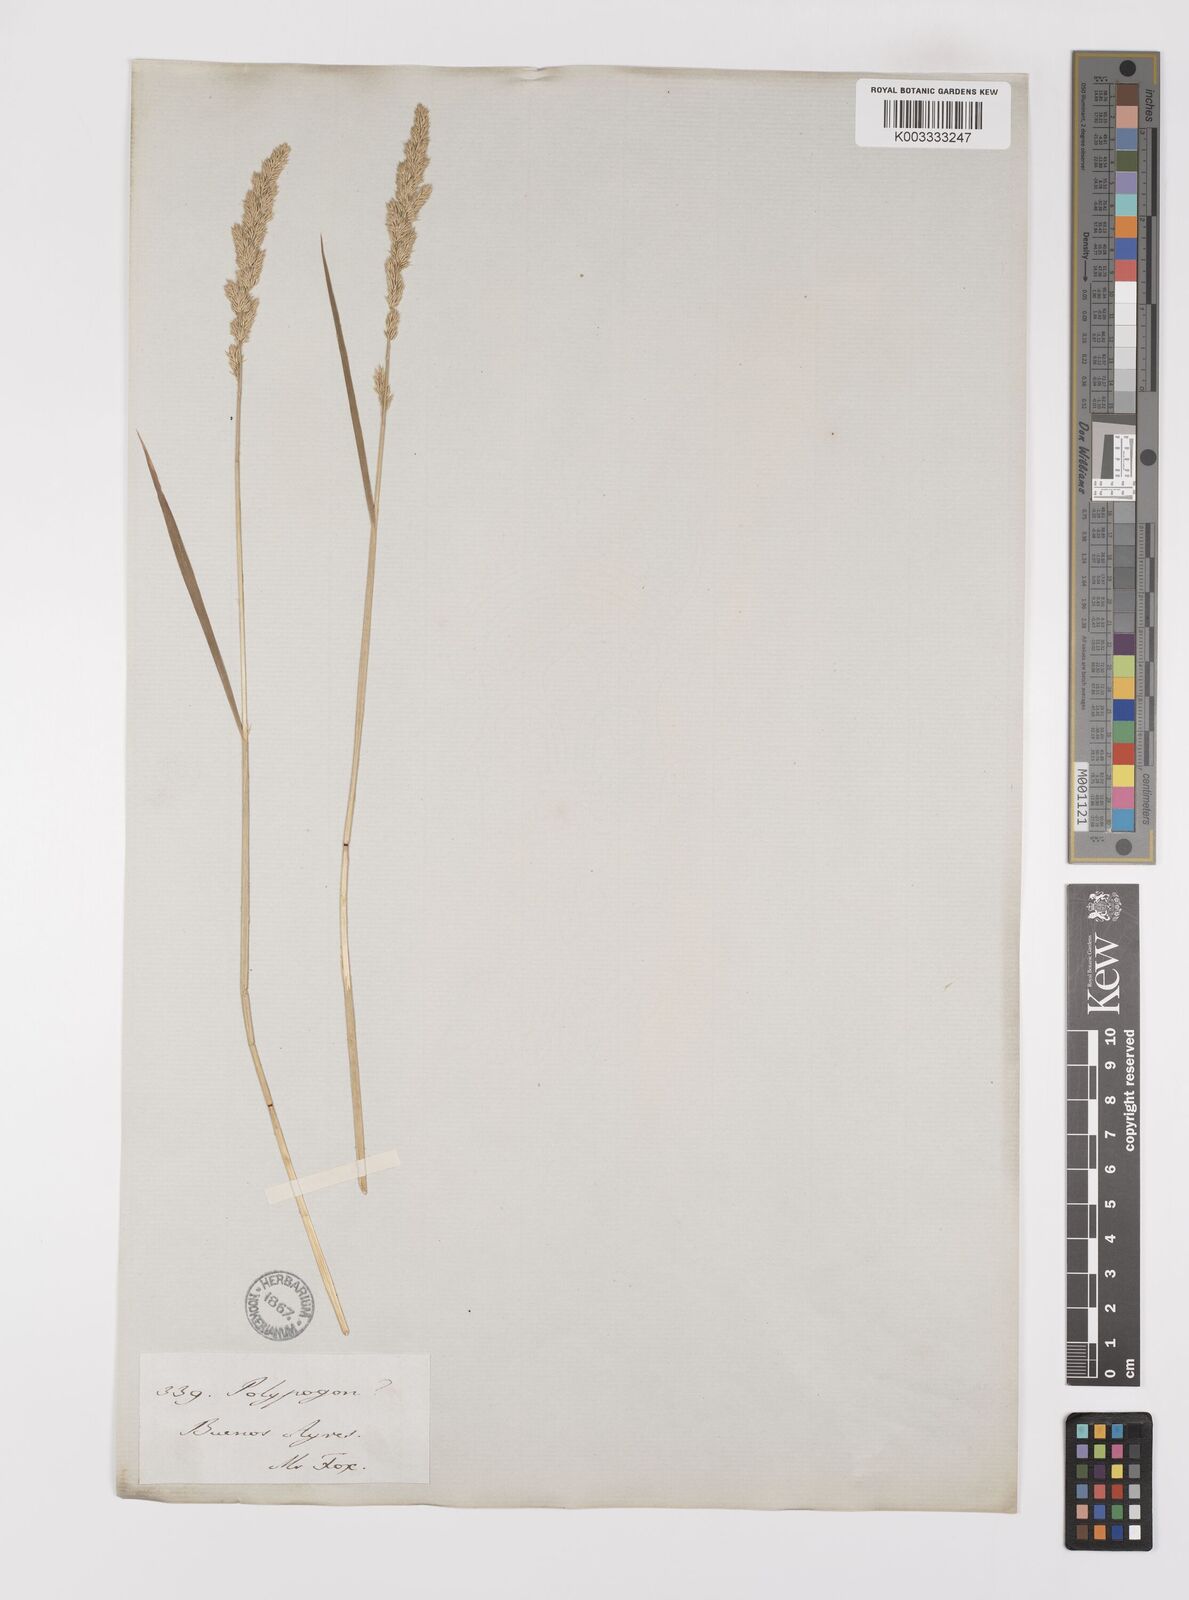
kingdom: Plantae
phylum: Tracheophyta
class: Liliopsida
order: Poales
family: Poaceae
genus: Polypogon
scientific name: Polypogon imberbis
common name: Beardless rabbitsfoot grass
